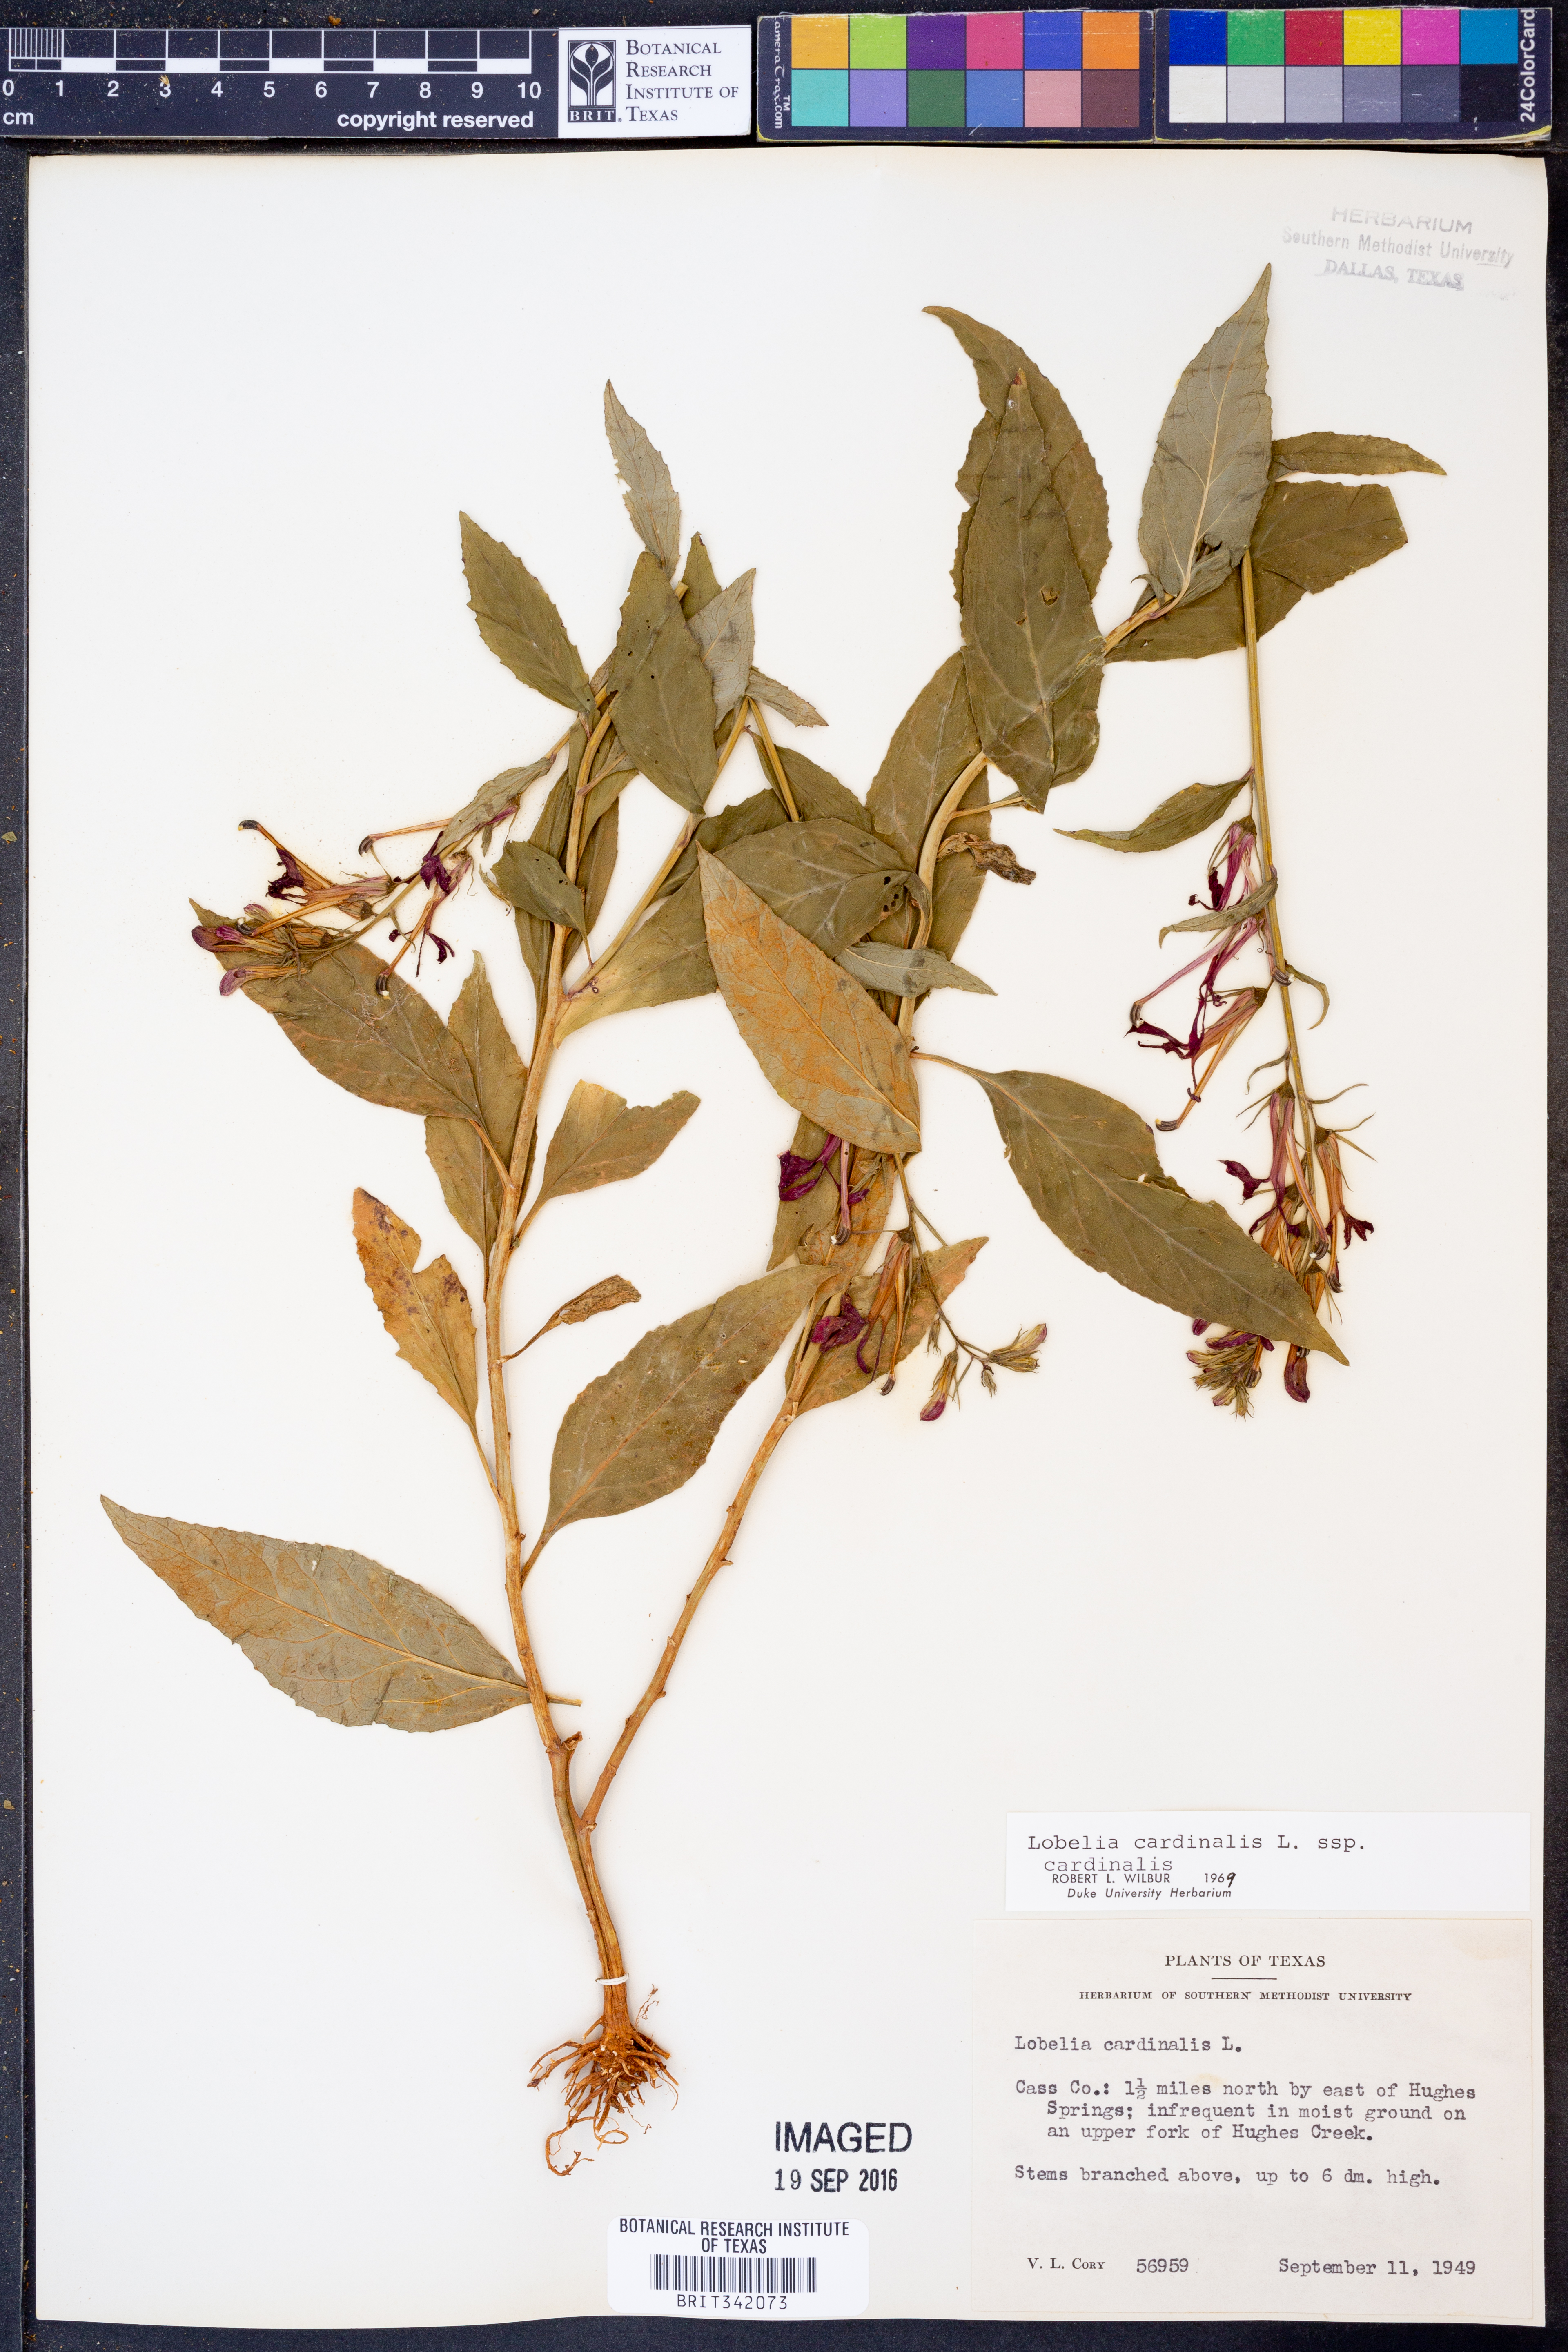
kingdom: Plantae
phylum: Tracheophyta
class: Magnoliopsida
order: Asterales
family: Campanulaceae
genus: Lobelia
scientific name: Lobelia cardinalis
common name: Cardinal flower
